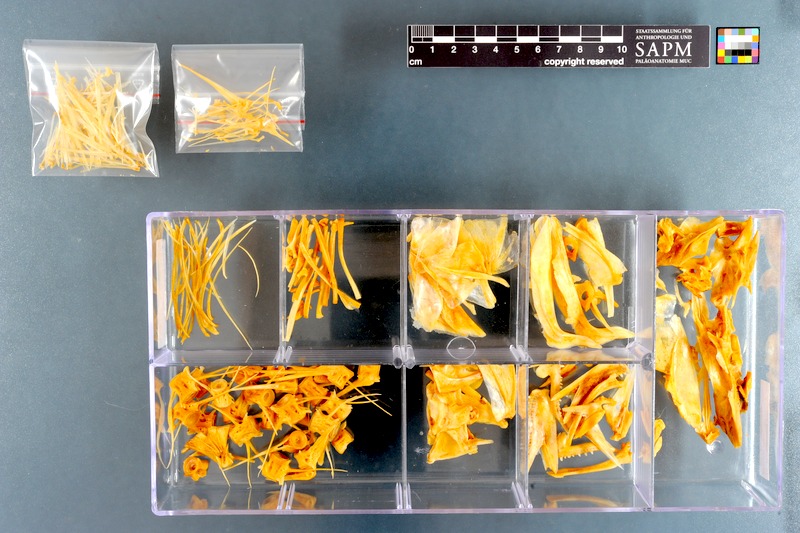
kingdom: Animalia
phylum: Chordata
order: Perciformes
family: Pomatomidae
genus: Pomatomus
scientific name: Pomatomus saltatrix
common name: Bluefish
